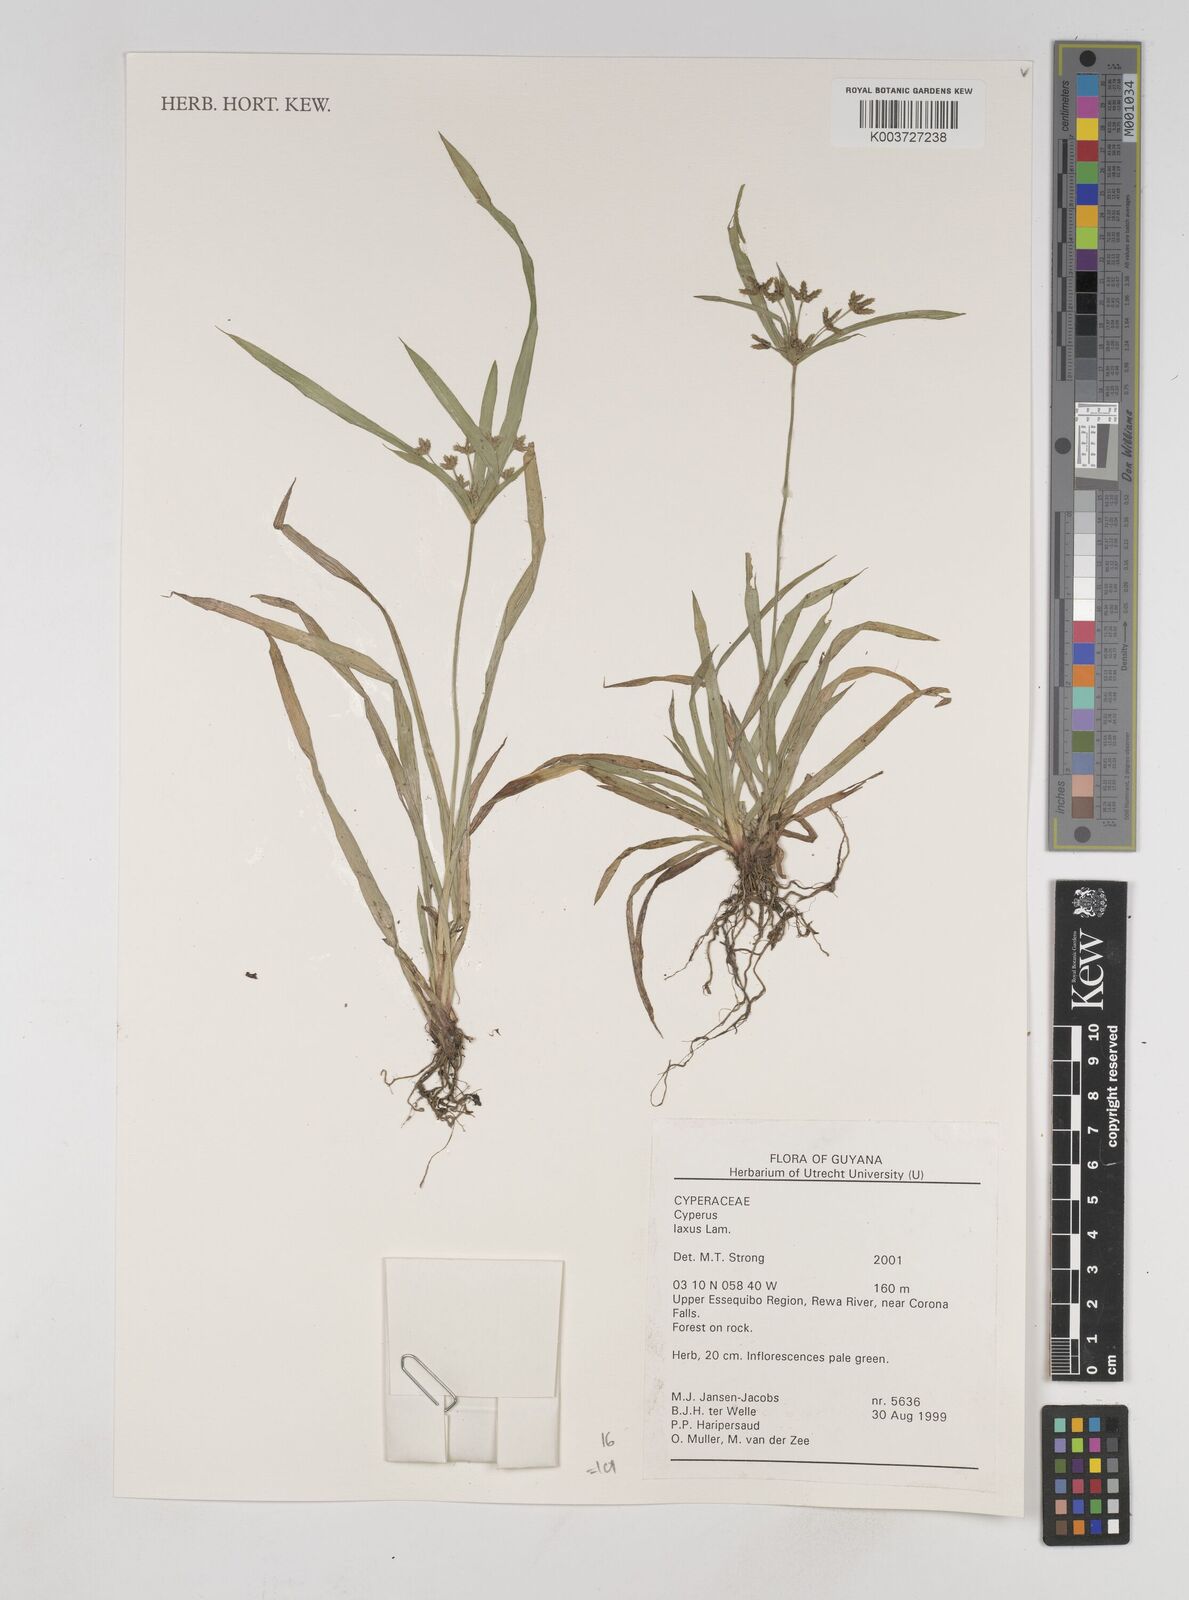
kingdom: Plantae
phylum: Tracheophyta
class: Liliopsida
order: Poales
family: Cyperaceae
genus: Cyperus
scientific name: Cyperus elegans
